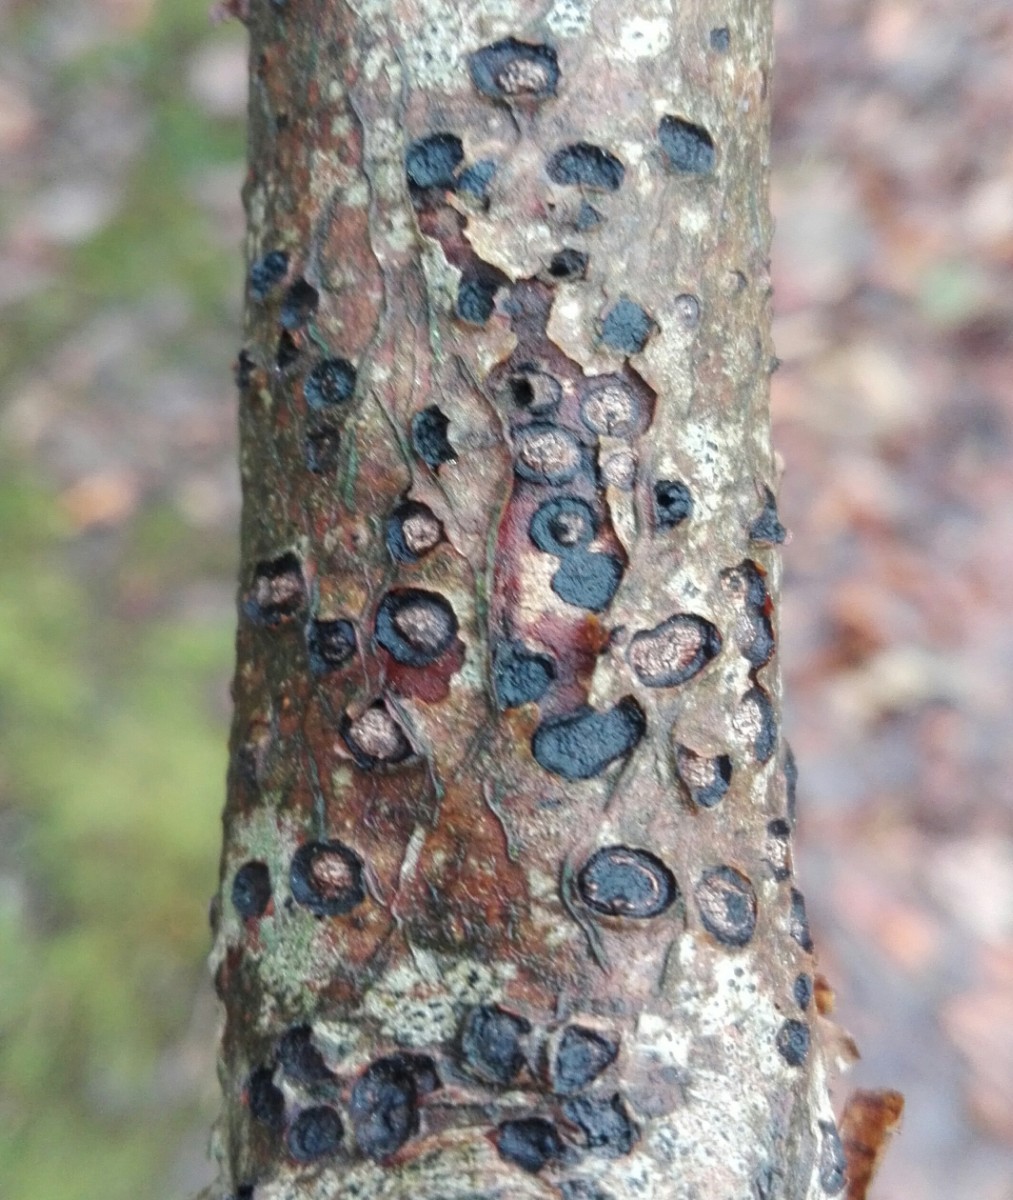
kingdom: Fungi
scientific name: Fungi
